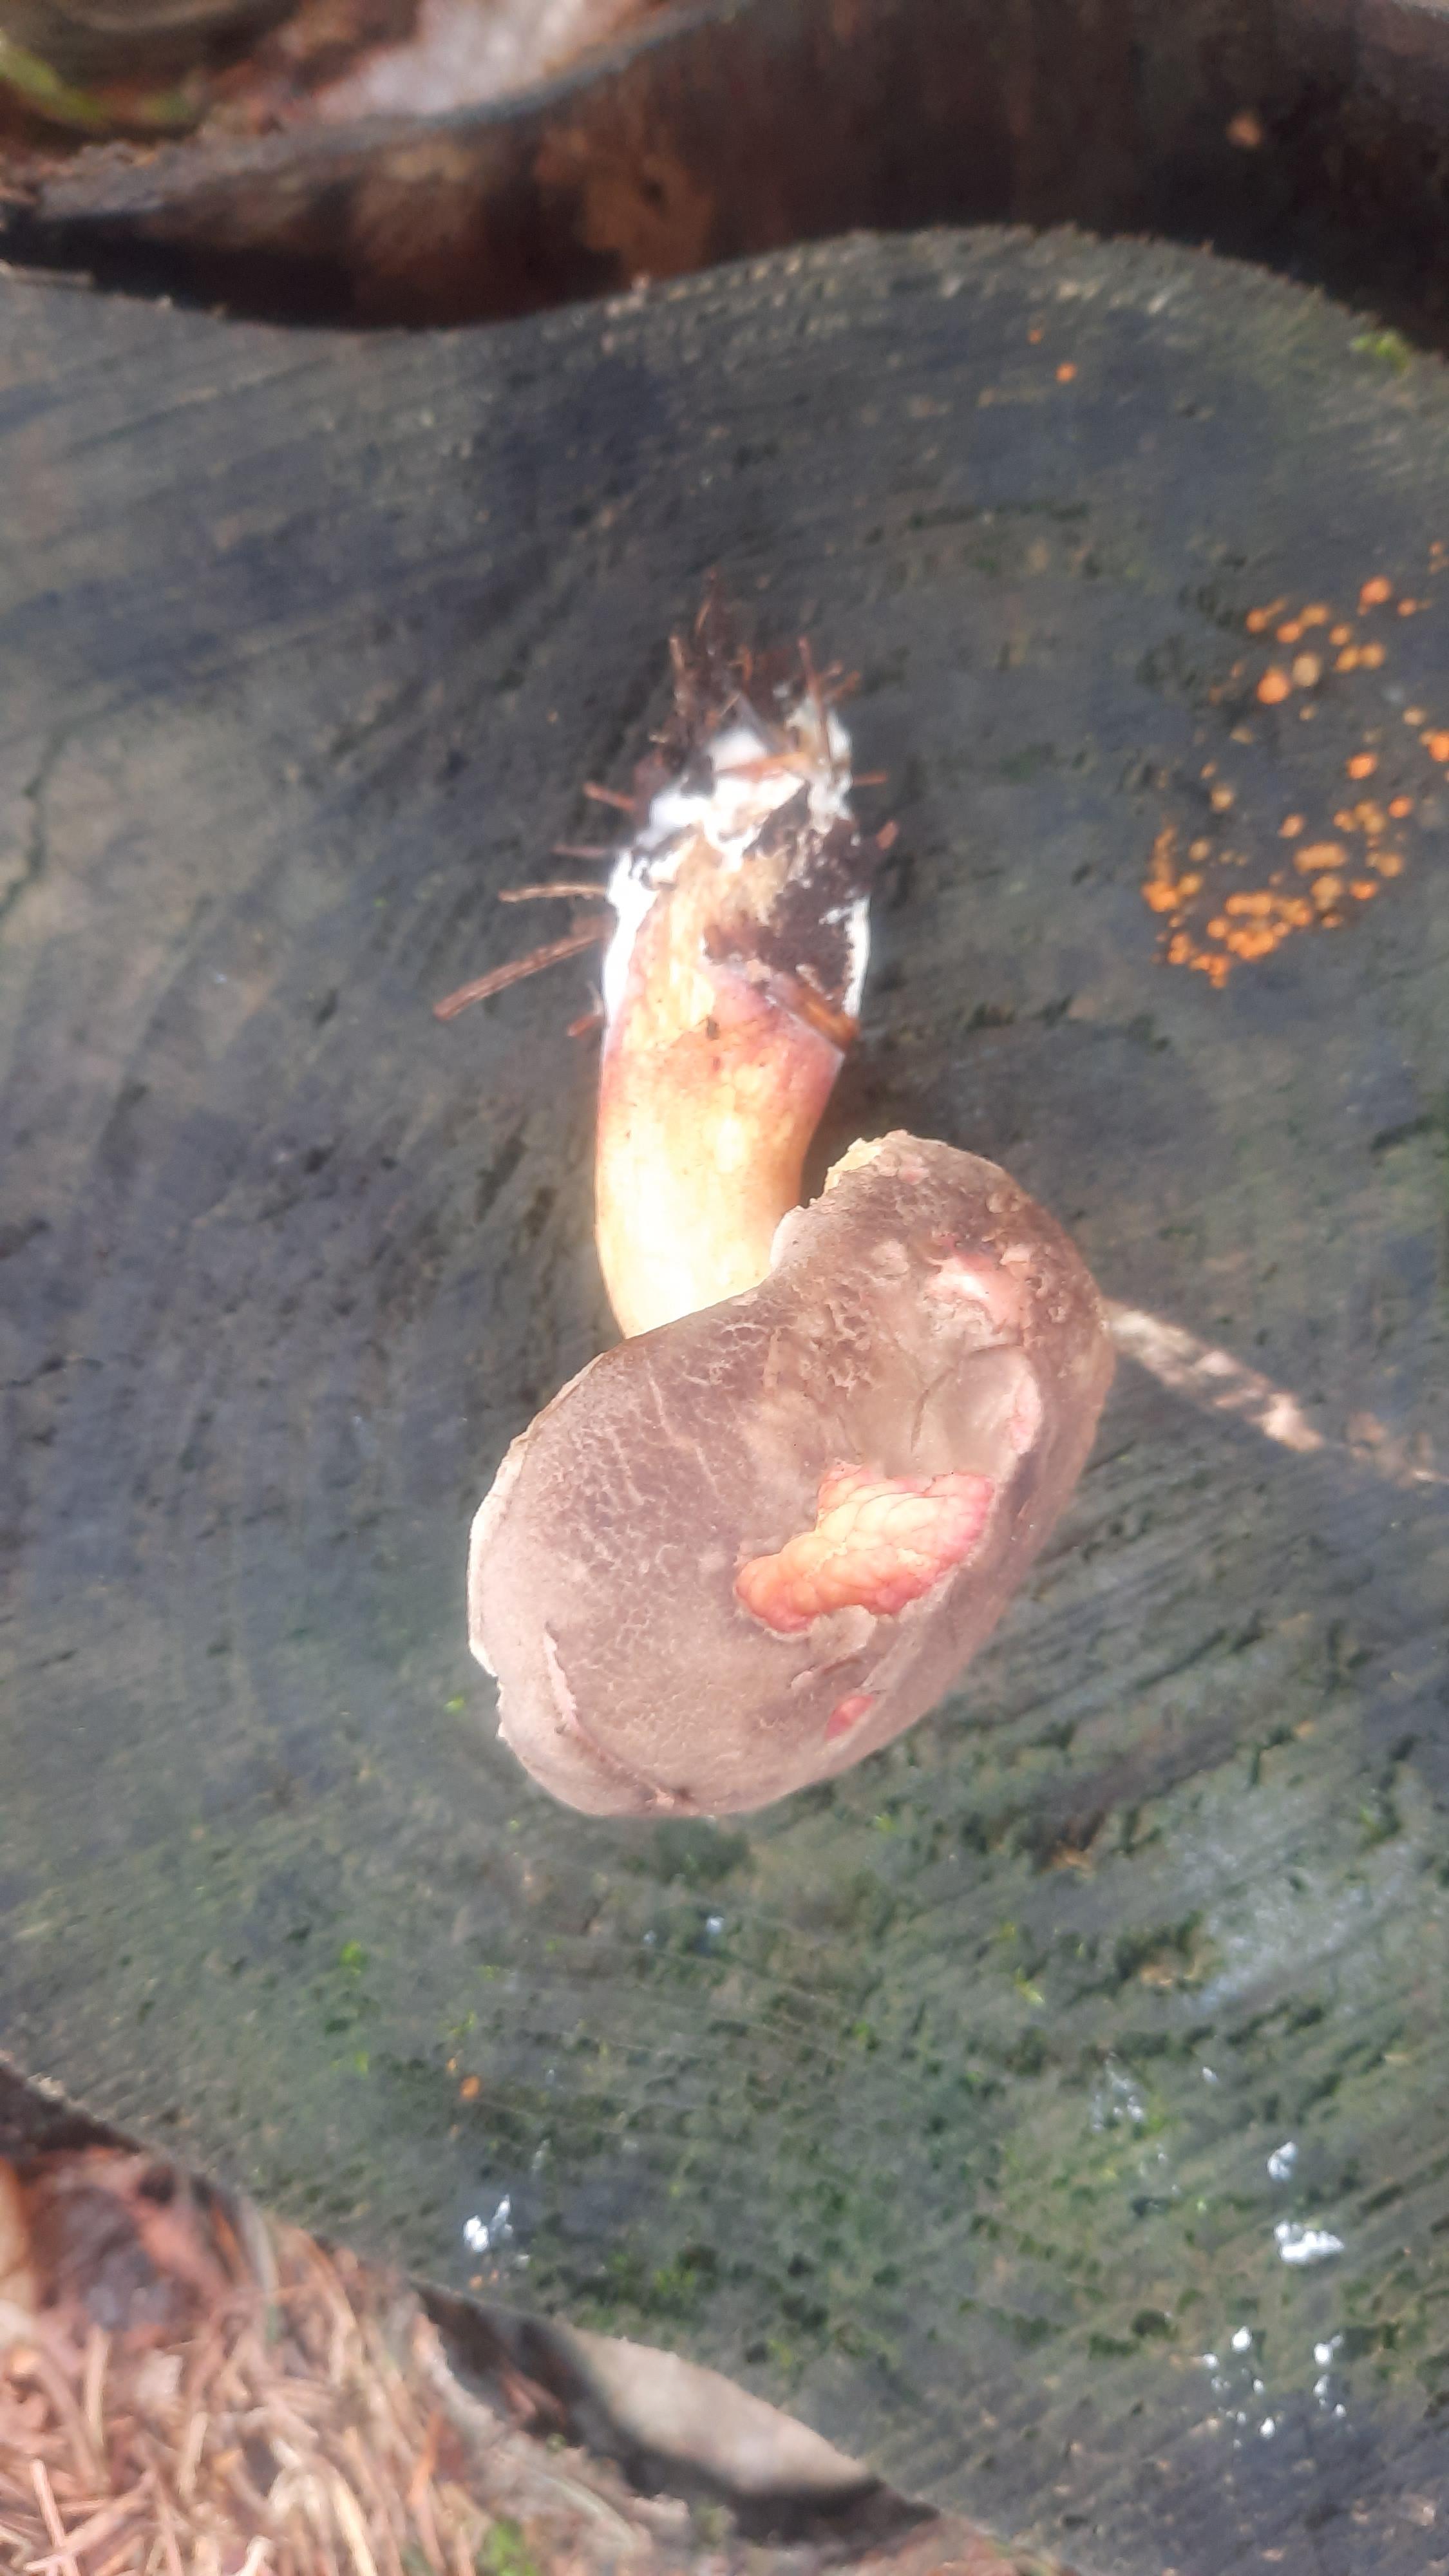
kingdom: Fungi
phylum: Basidiomycota
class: Agaricomycetes
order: Boletales
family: Boletaceae
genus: Xerocomellus
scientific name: Xerocomellus chrysenteron
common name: rødsprukken rørhat
